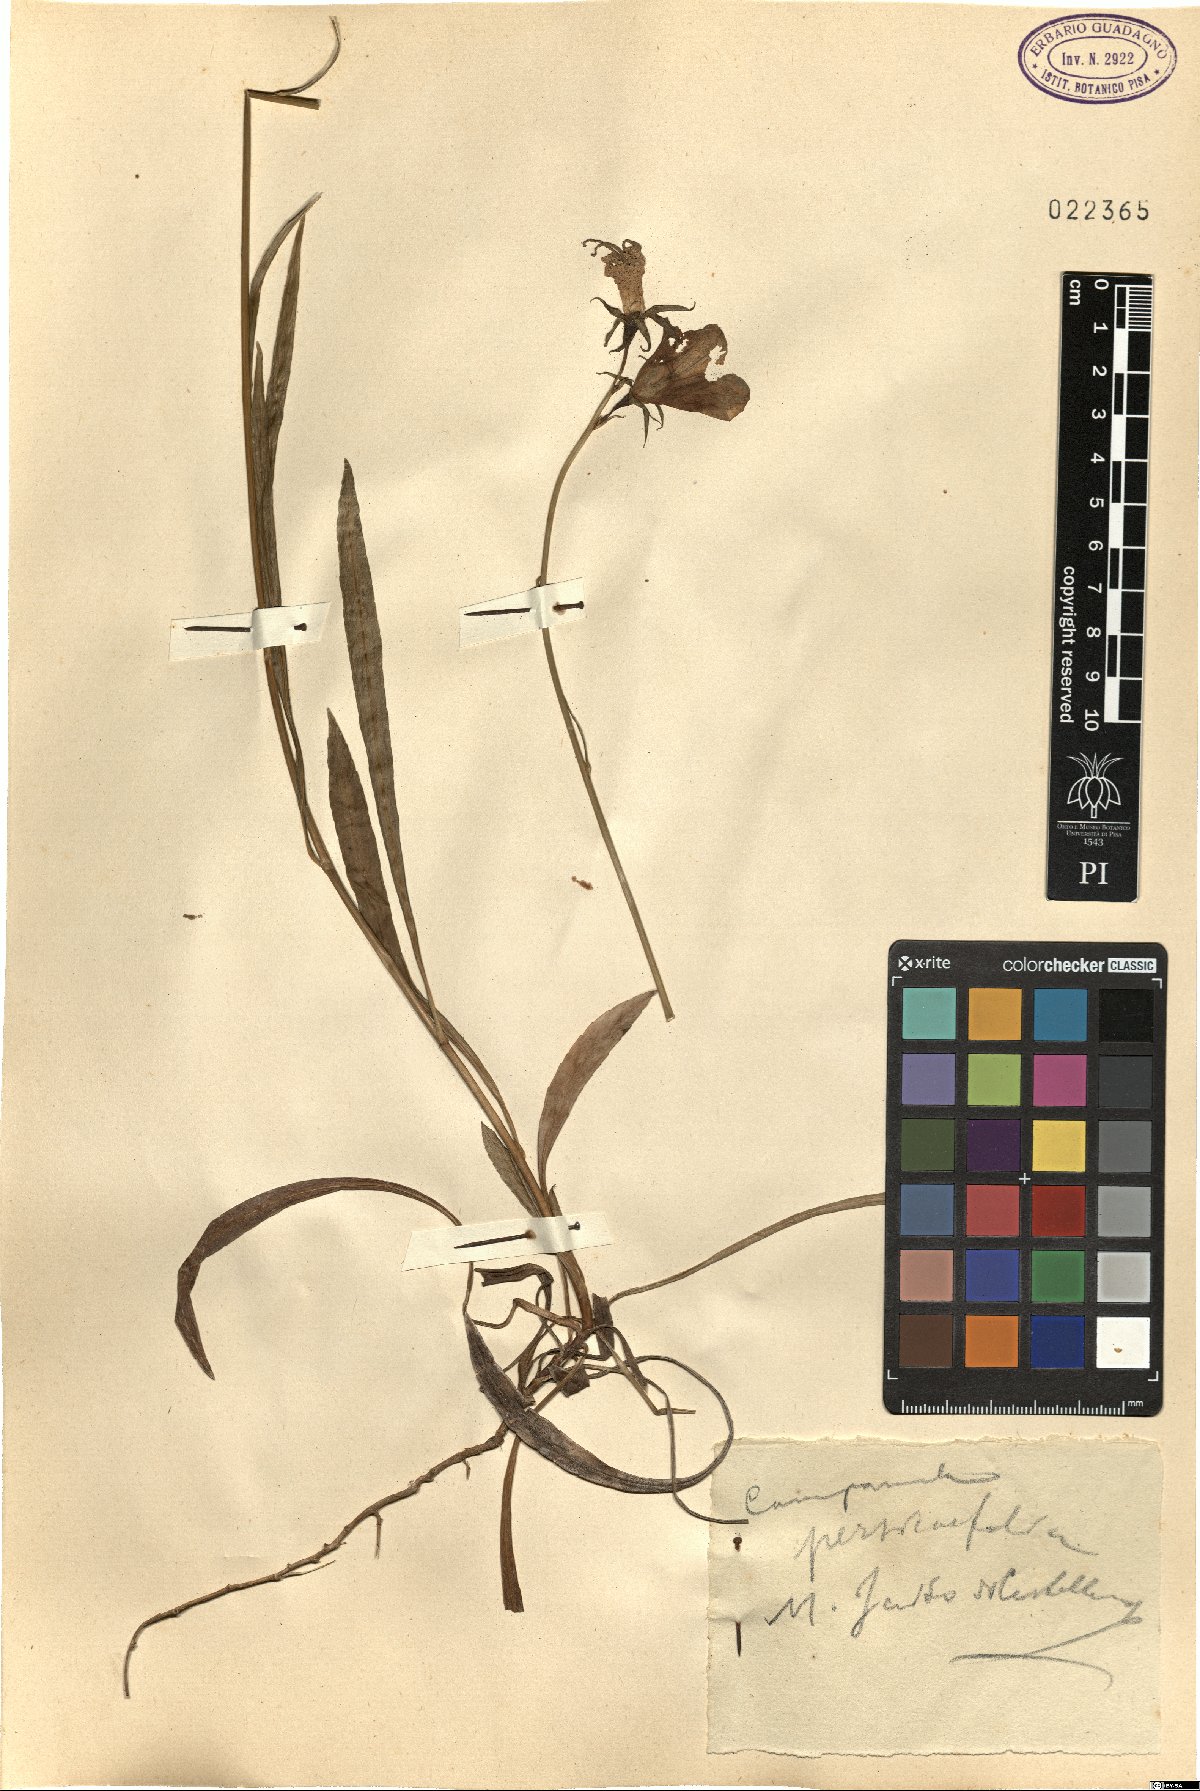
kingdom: Plantae
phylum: Tracheophyta
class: Magnoliopsida
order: Asterales
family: Campanulaceae
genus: Campanula
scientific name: Campanula persicifolia
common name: Peach-leaved bellflower
